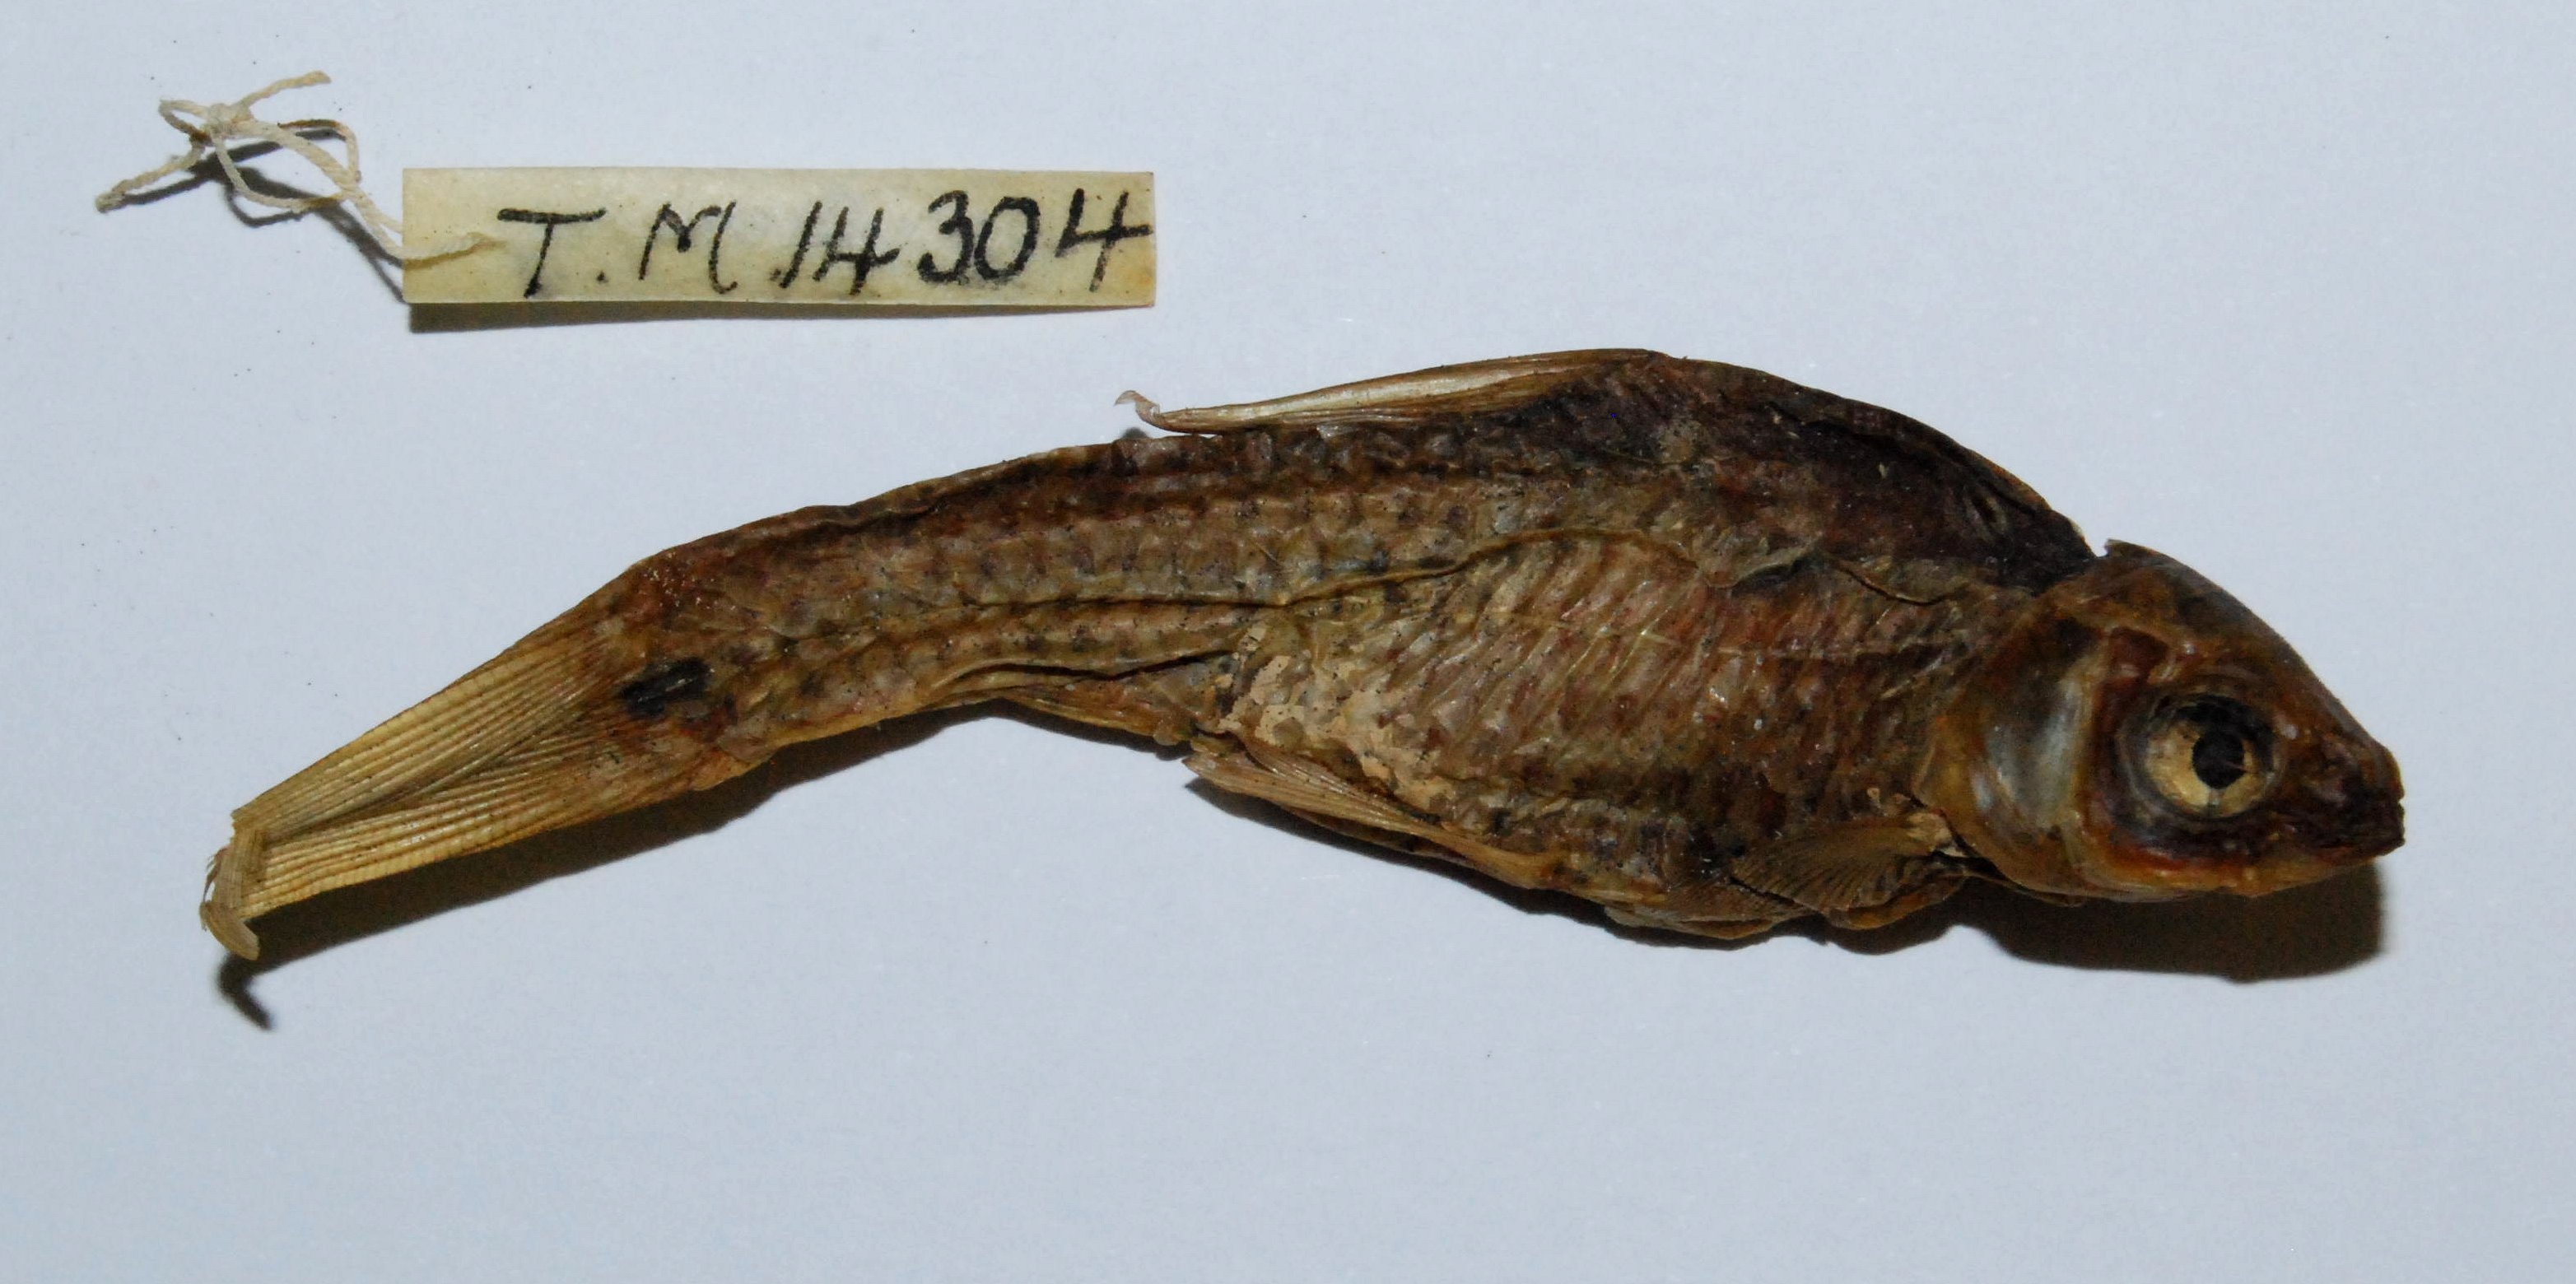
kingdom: Animalia
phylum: Chordata
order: Cypriniformes
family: Cyprinidae
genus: Enteromius
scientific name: Enteromius trimaculatus
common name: Threespot barb
